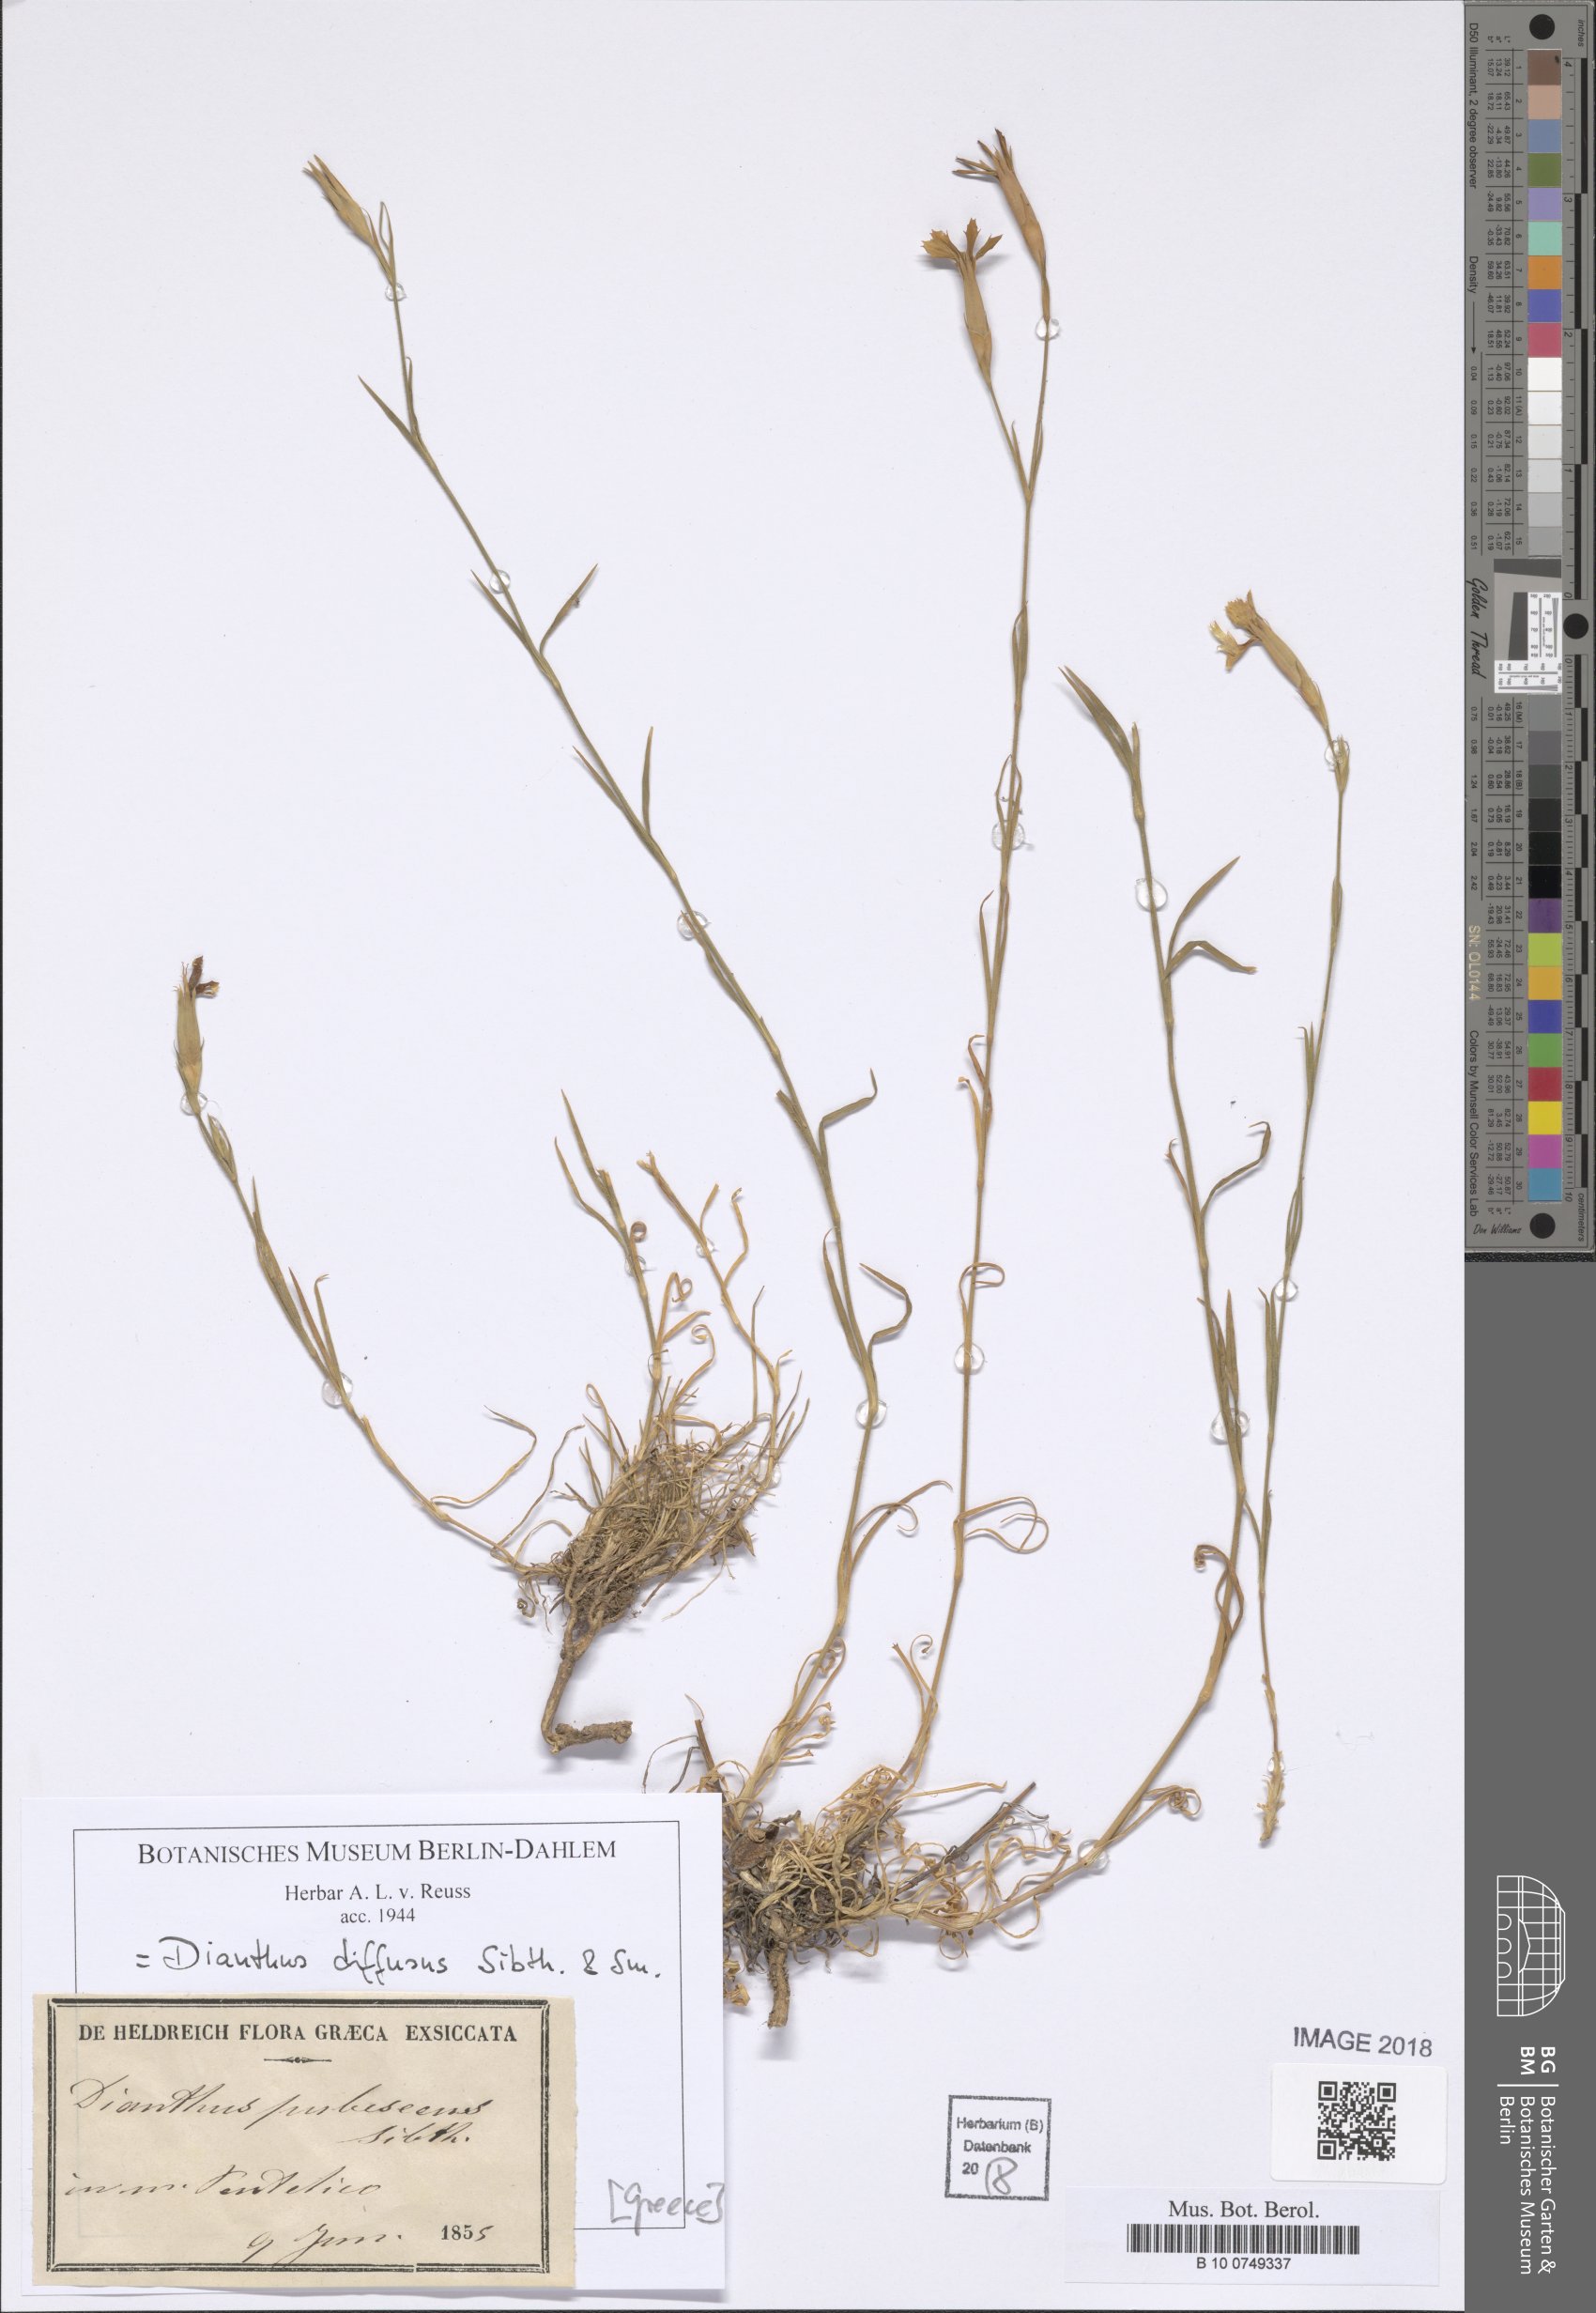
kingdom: Plantae
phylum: Tracheophyta
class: Magnoliopsida
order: Caryophyllales
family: Caryophyllaceae
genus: Dianthus
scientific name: Dianthus diffusus
